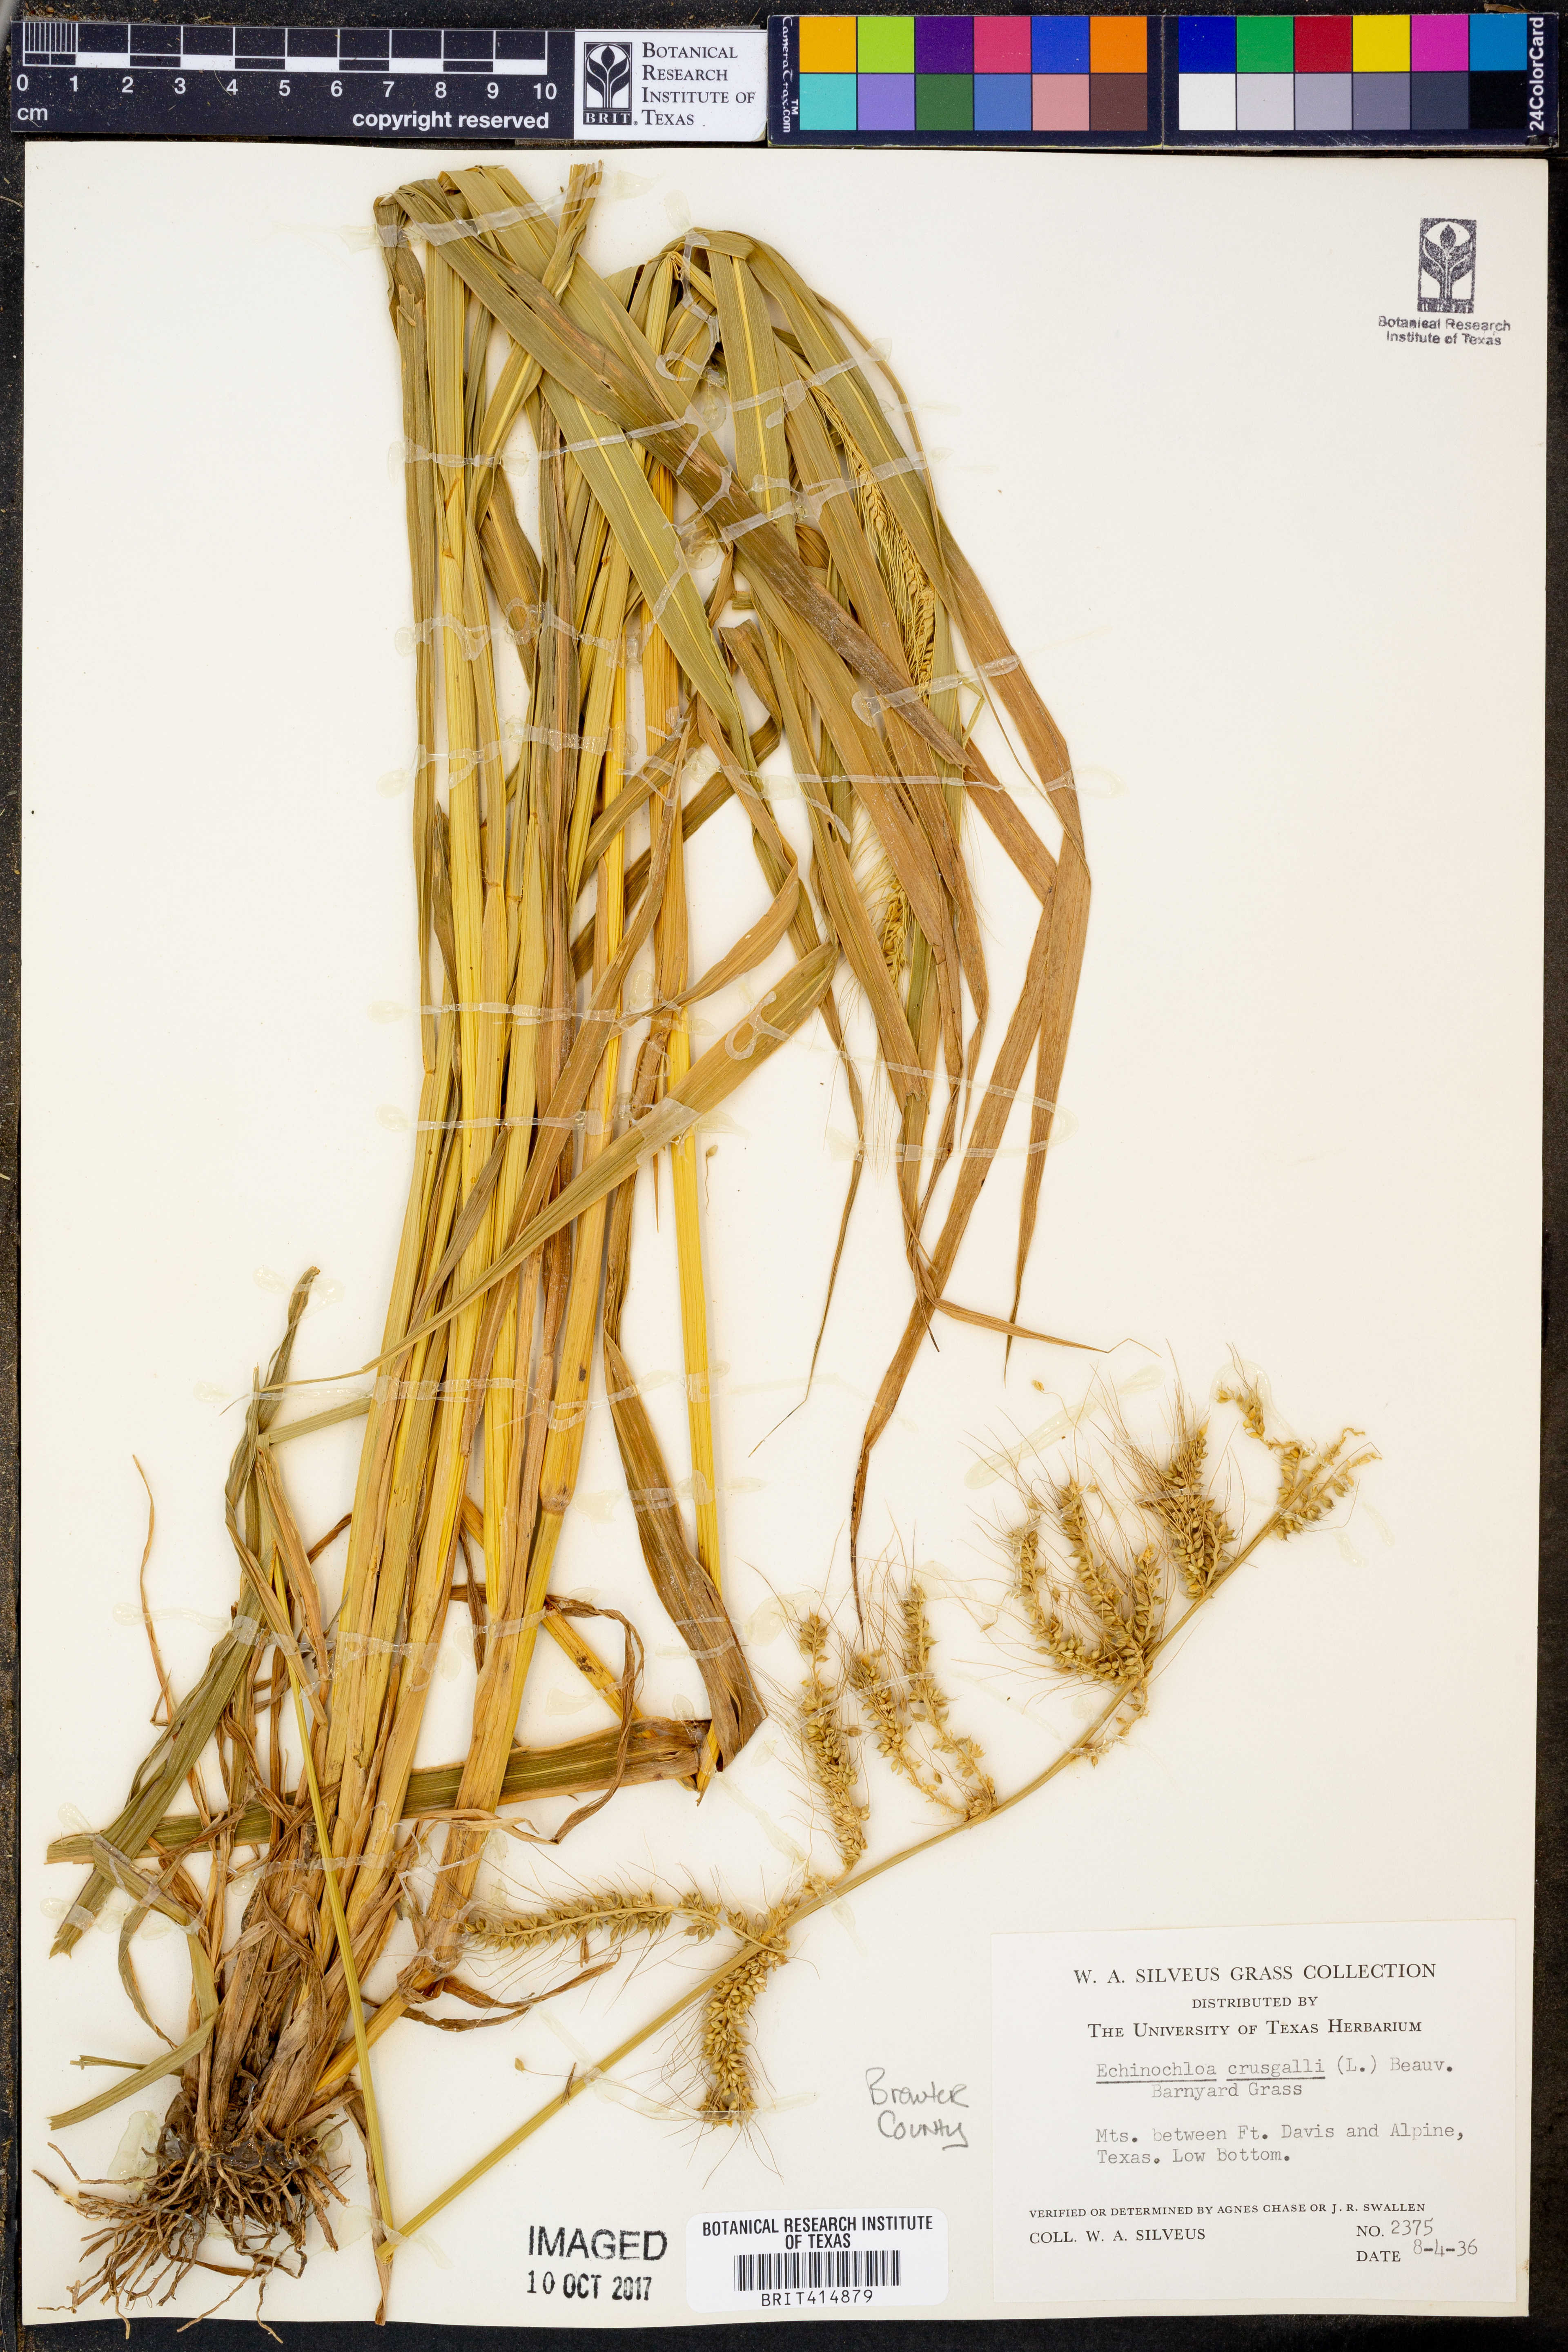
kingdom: Plantae
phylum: Tracheophyta
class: Liliopsida
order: Poales
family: Poaceae
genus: Echinochloa
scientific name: Echinochloa
